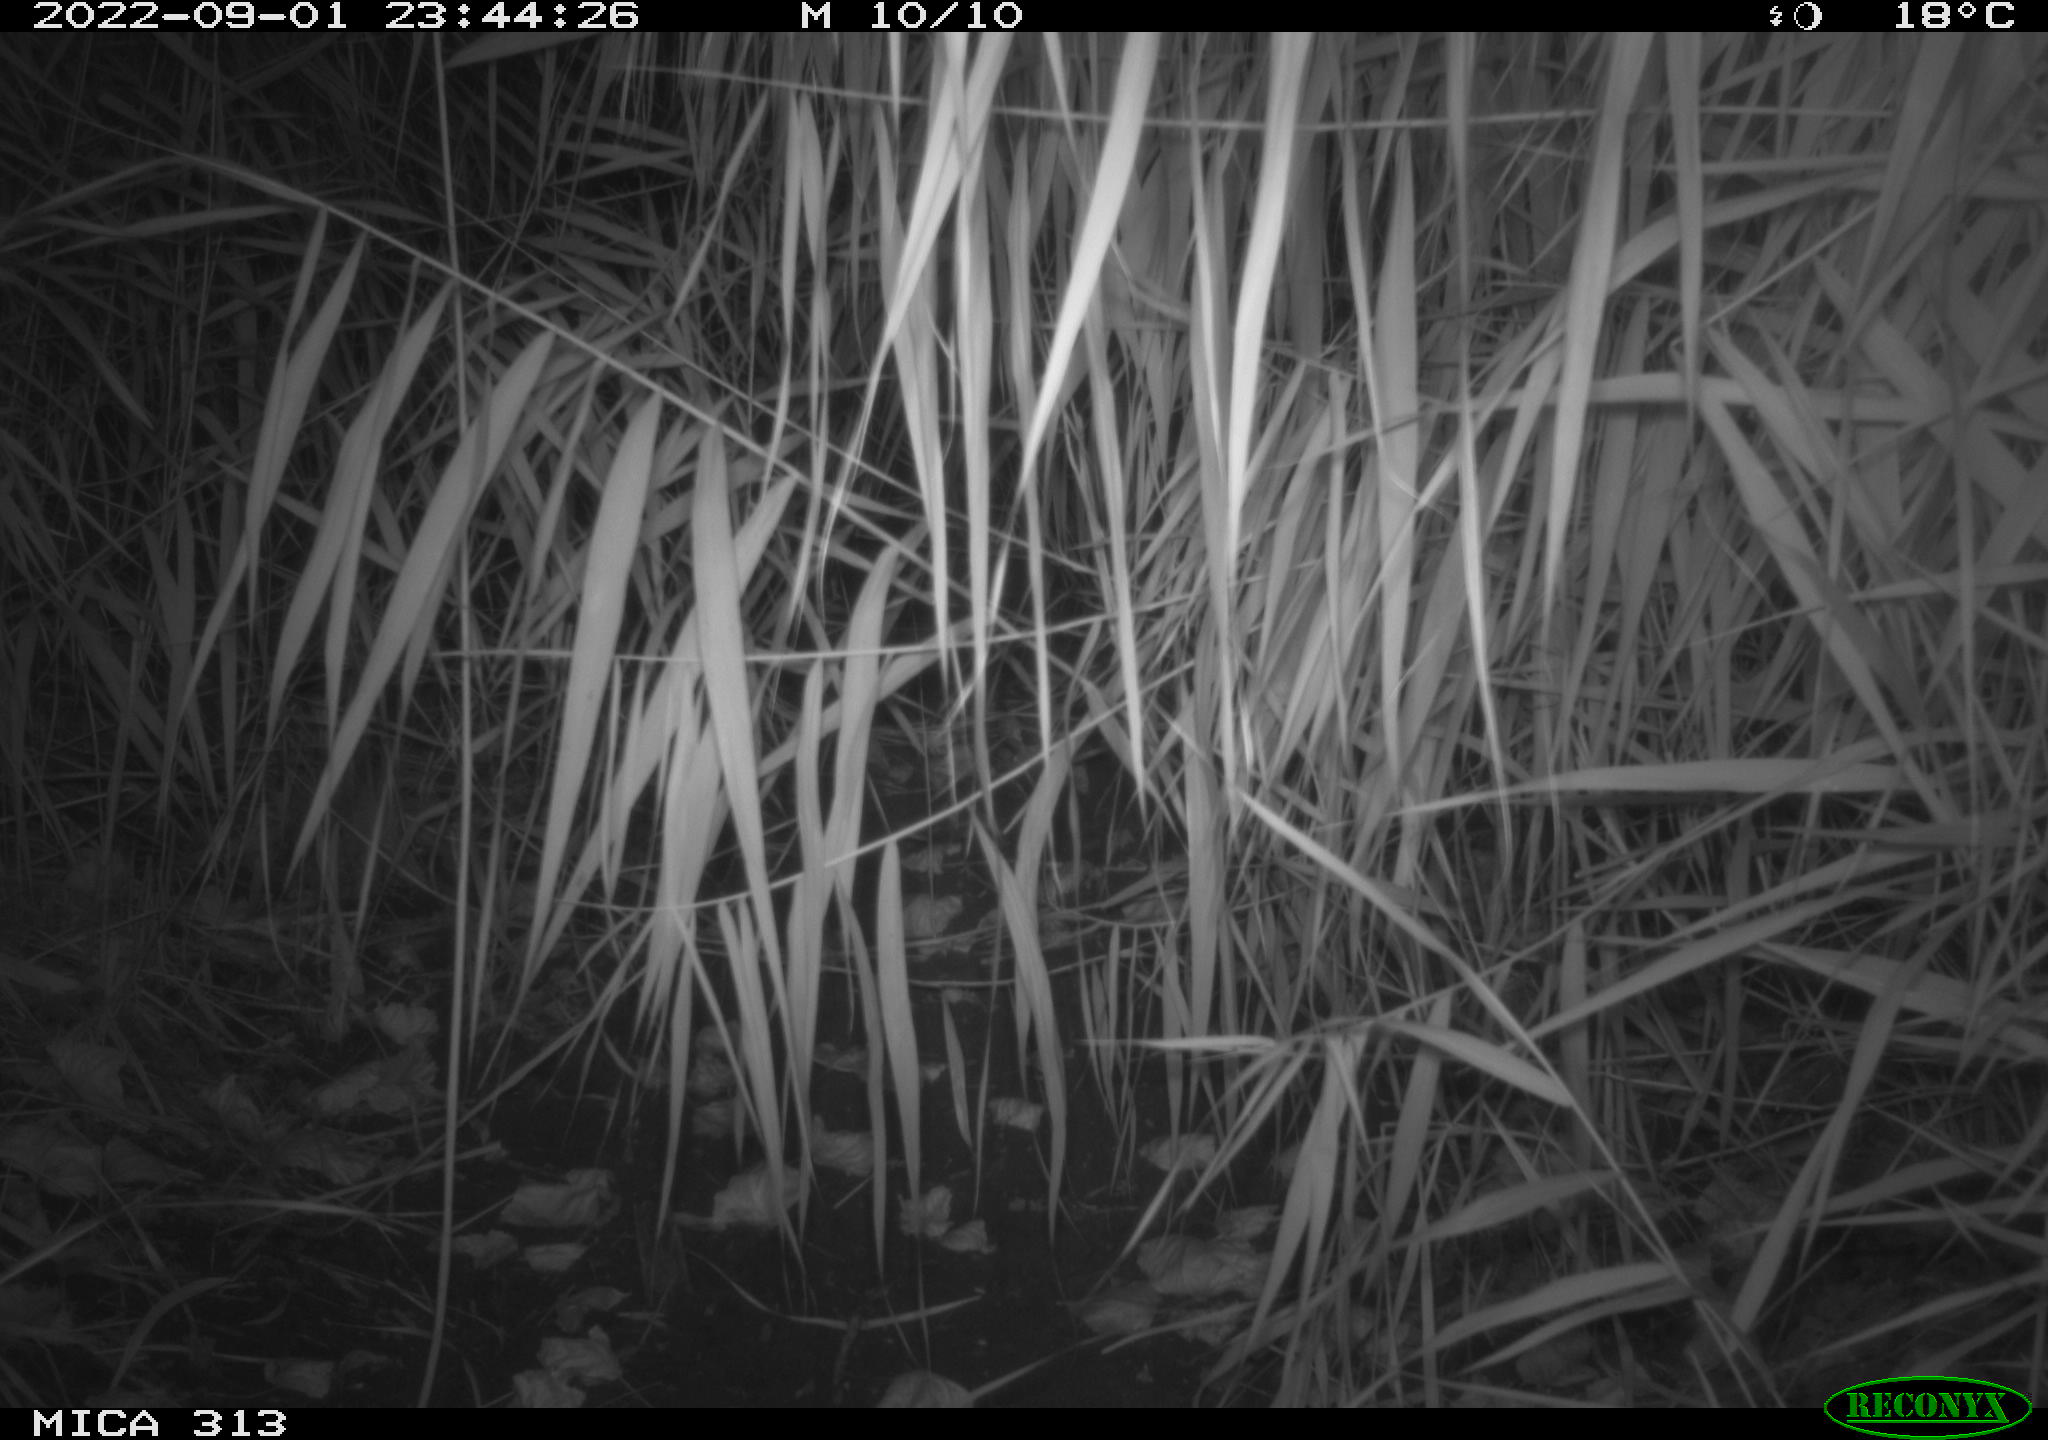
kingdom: Animalia
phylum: Chordata
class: Mammalia
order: Rodentia
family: Muridae
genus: Rattus
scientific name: Rattus norvegicus
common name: Brown rat
